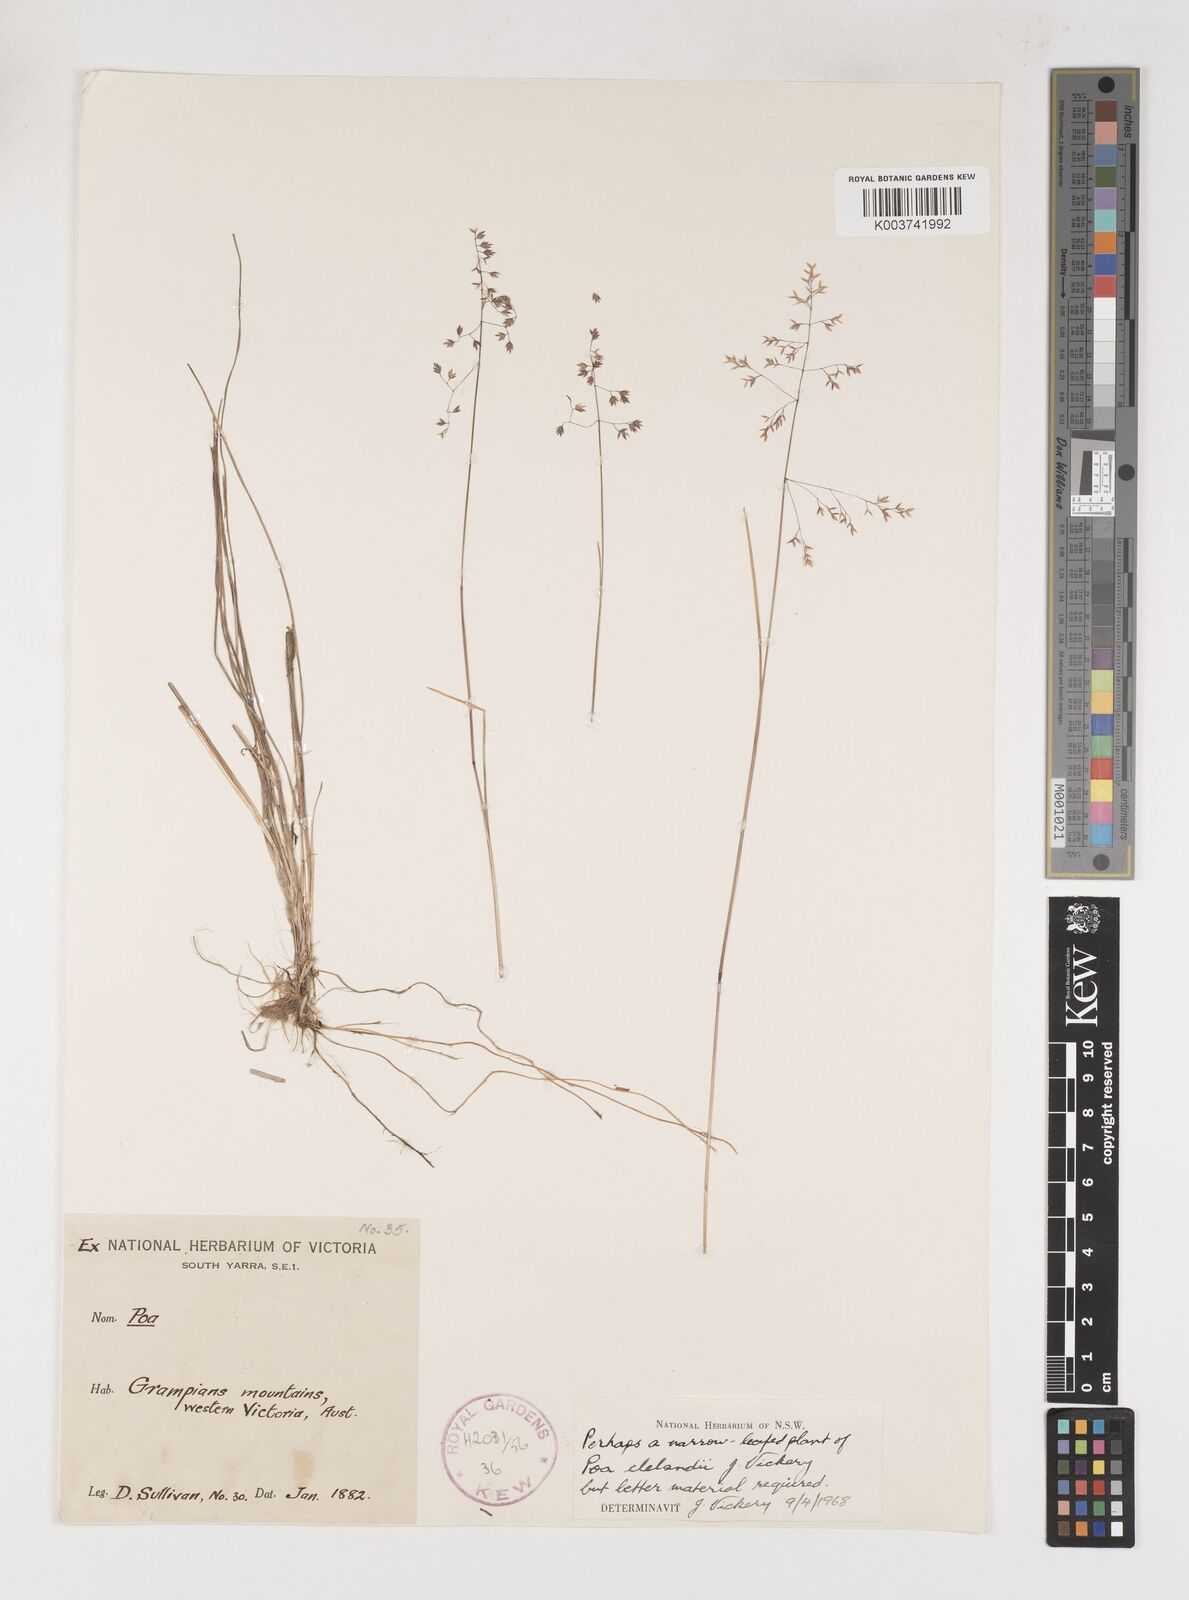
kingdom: Plantae
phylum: Tracheophyta
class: Liliopsida
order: Poales
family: Poaceae
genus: Poa
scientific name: Poa clelandii
